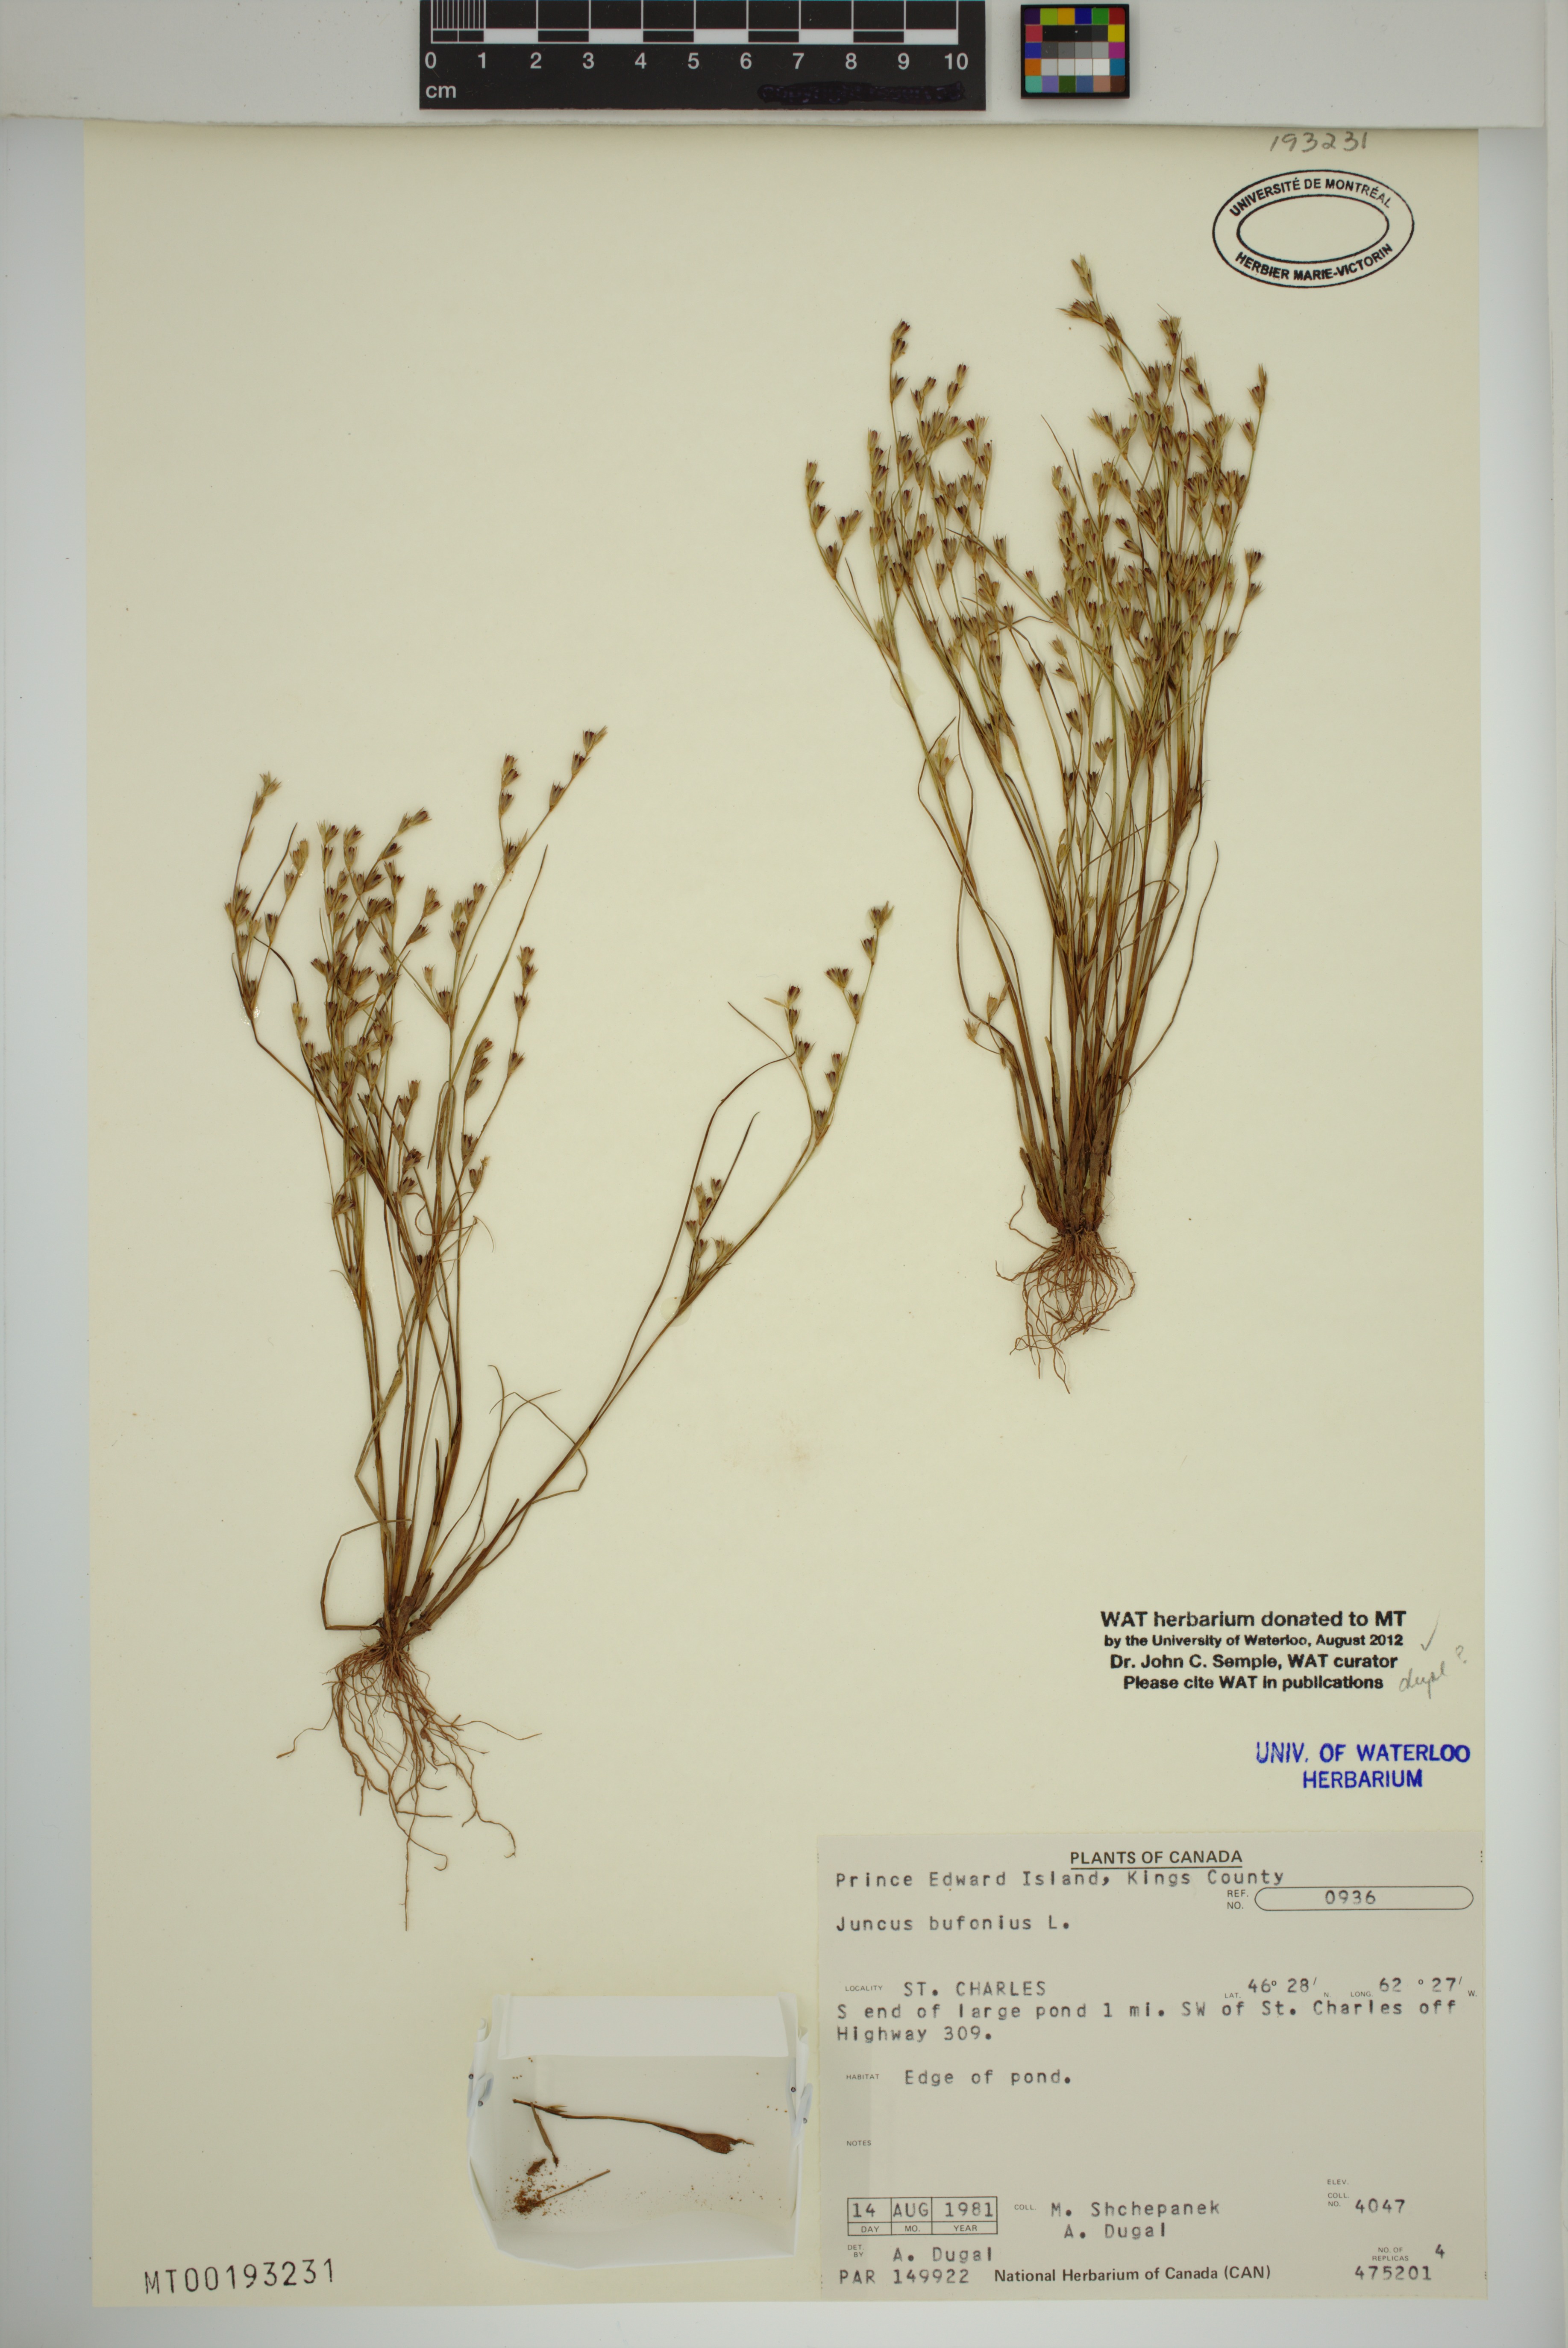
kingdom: Plantae
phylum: Tracheophyta
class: Liliopsida
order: Poales
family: Juncaceae
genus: Juncus
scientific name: Juncus bufonius
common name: Toad rush
